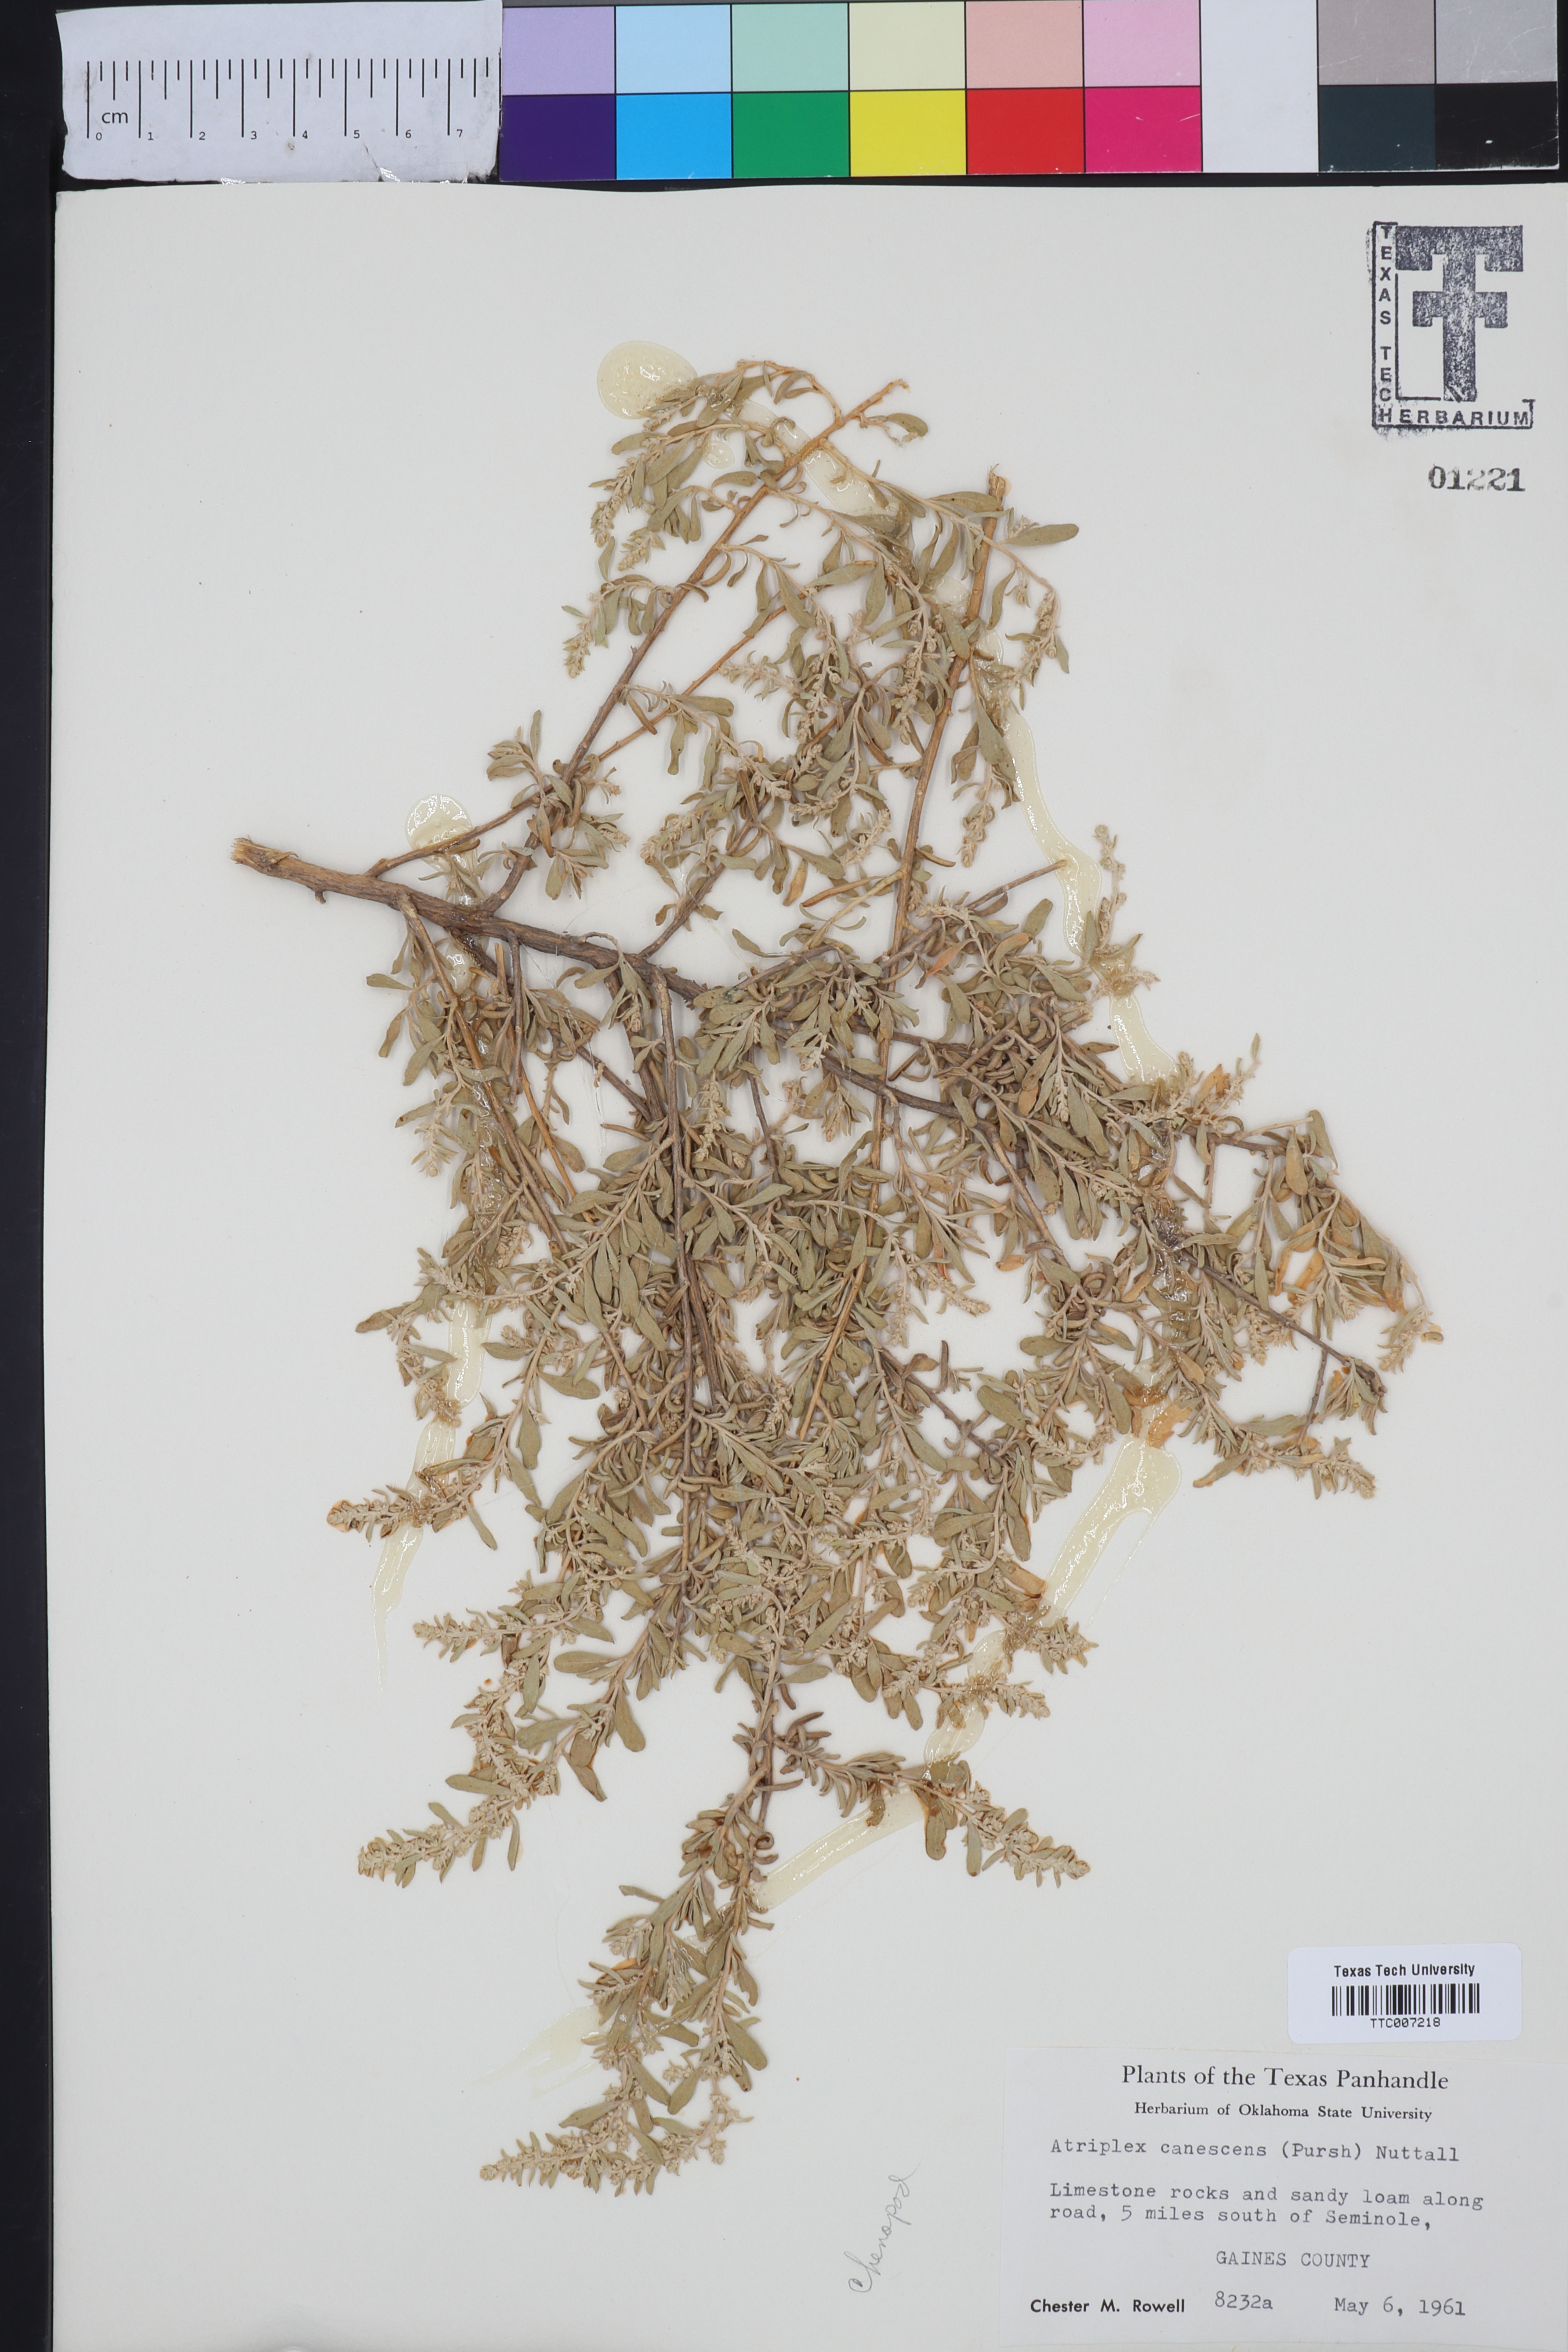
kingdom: Plantae
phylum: Tracheophyta
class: Magnoliopsida
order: Caryophyllales
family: Amaranthaceae
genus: Atriplex
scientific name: Atriplex canescens
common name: Four-wing saltbush
